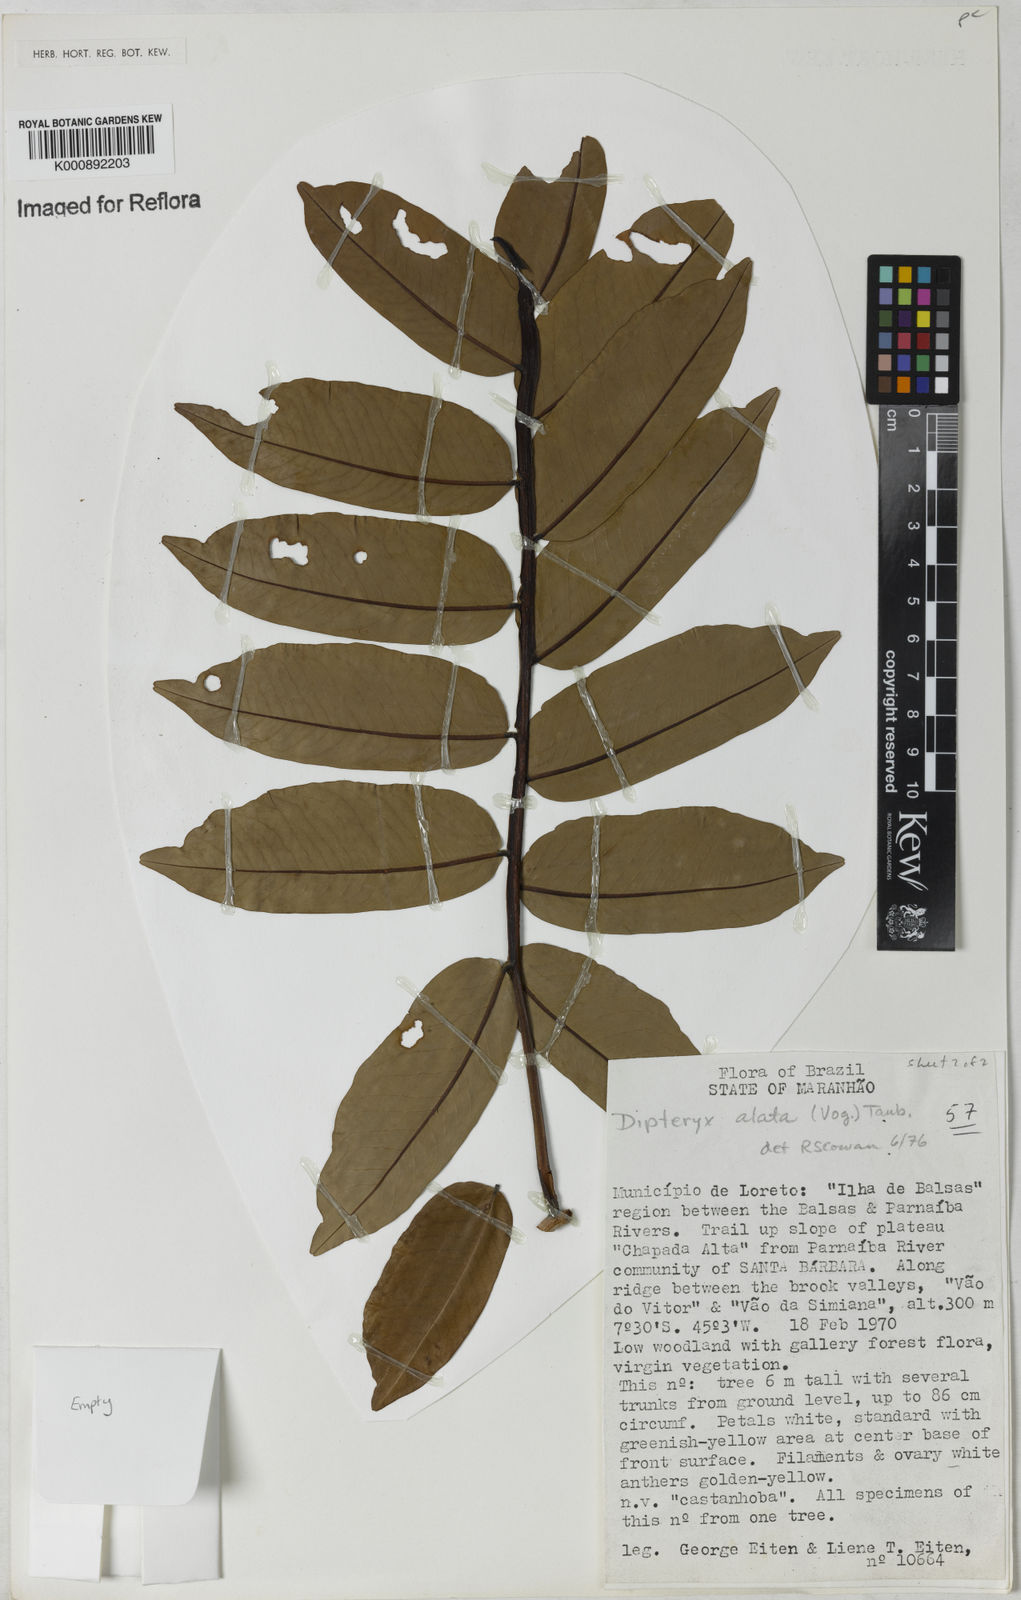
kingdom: Plantae
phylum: Tracheophyta
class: Magnoliopsida
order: Fabales
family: Fabaceae
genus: Dipteryx
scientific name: Dipteryx alata
